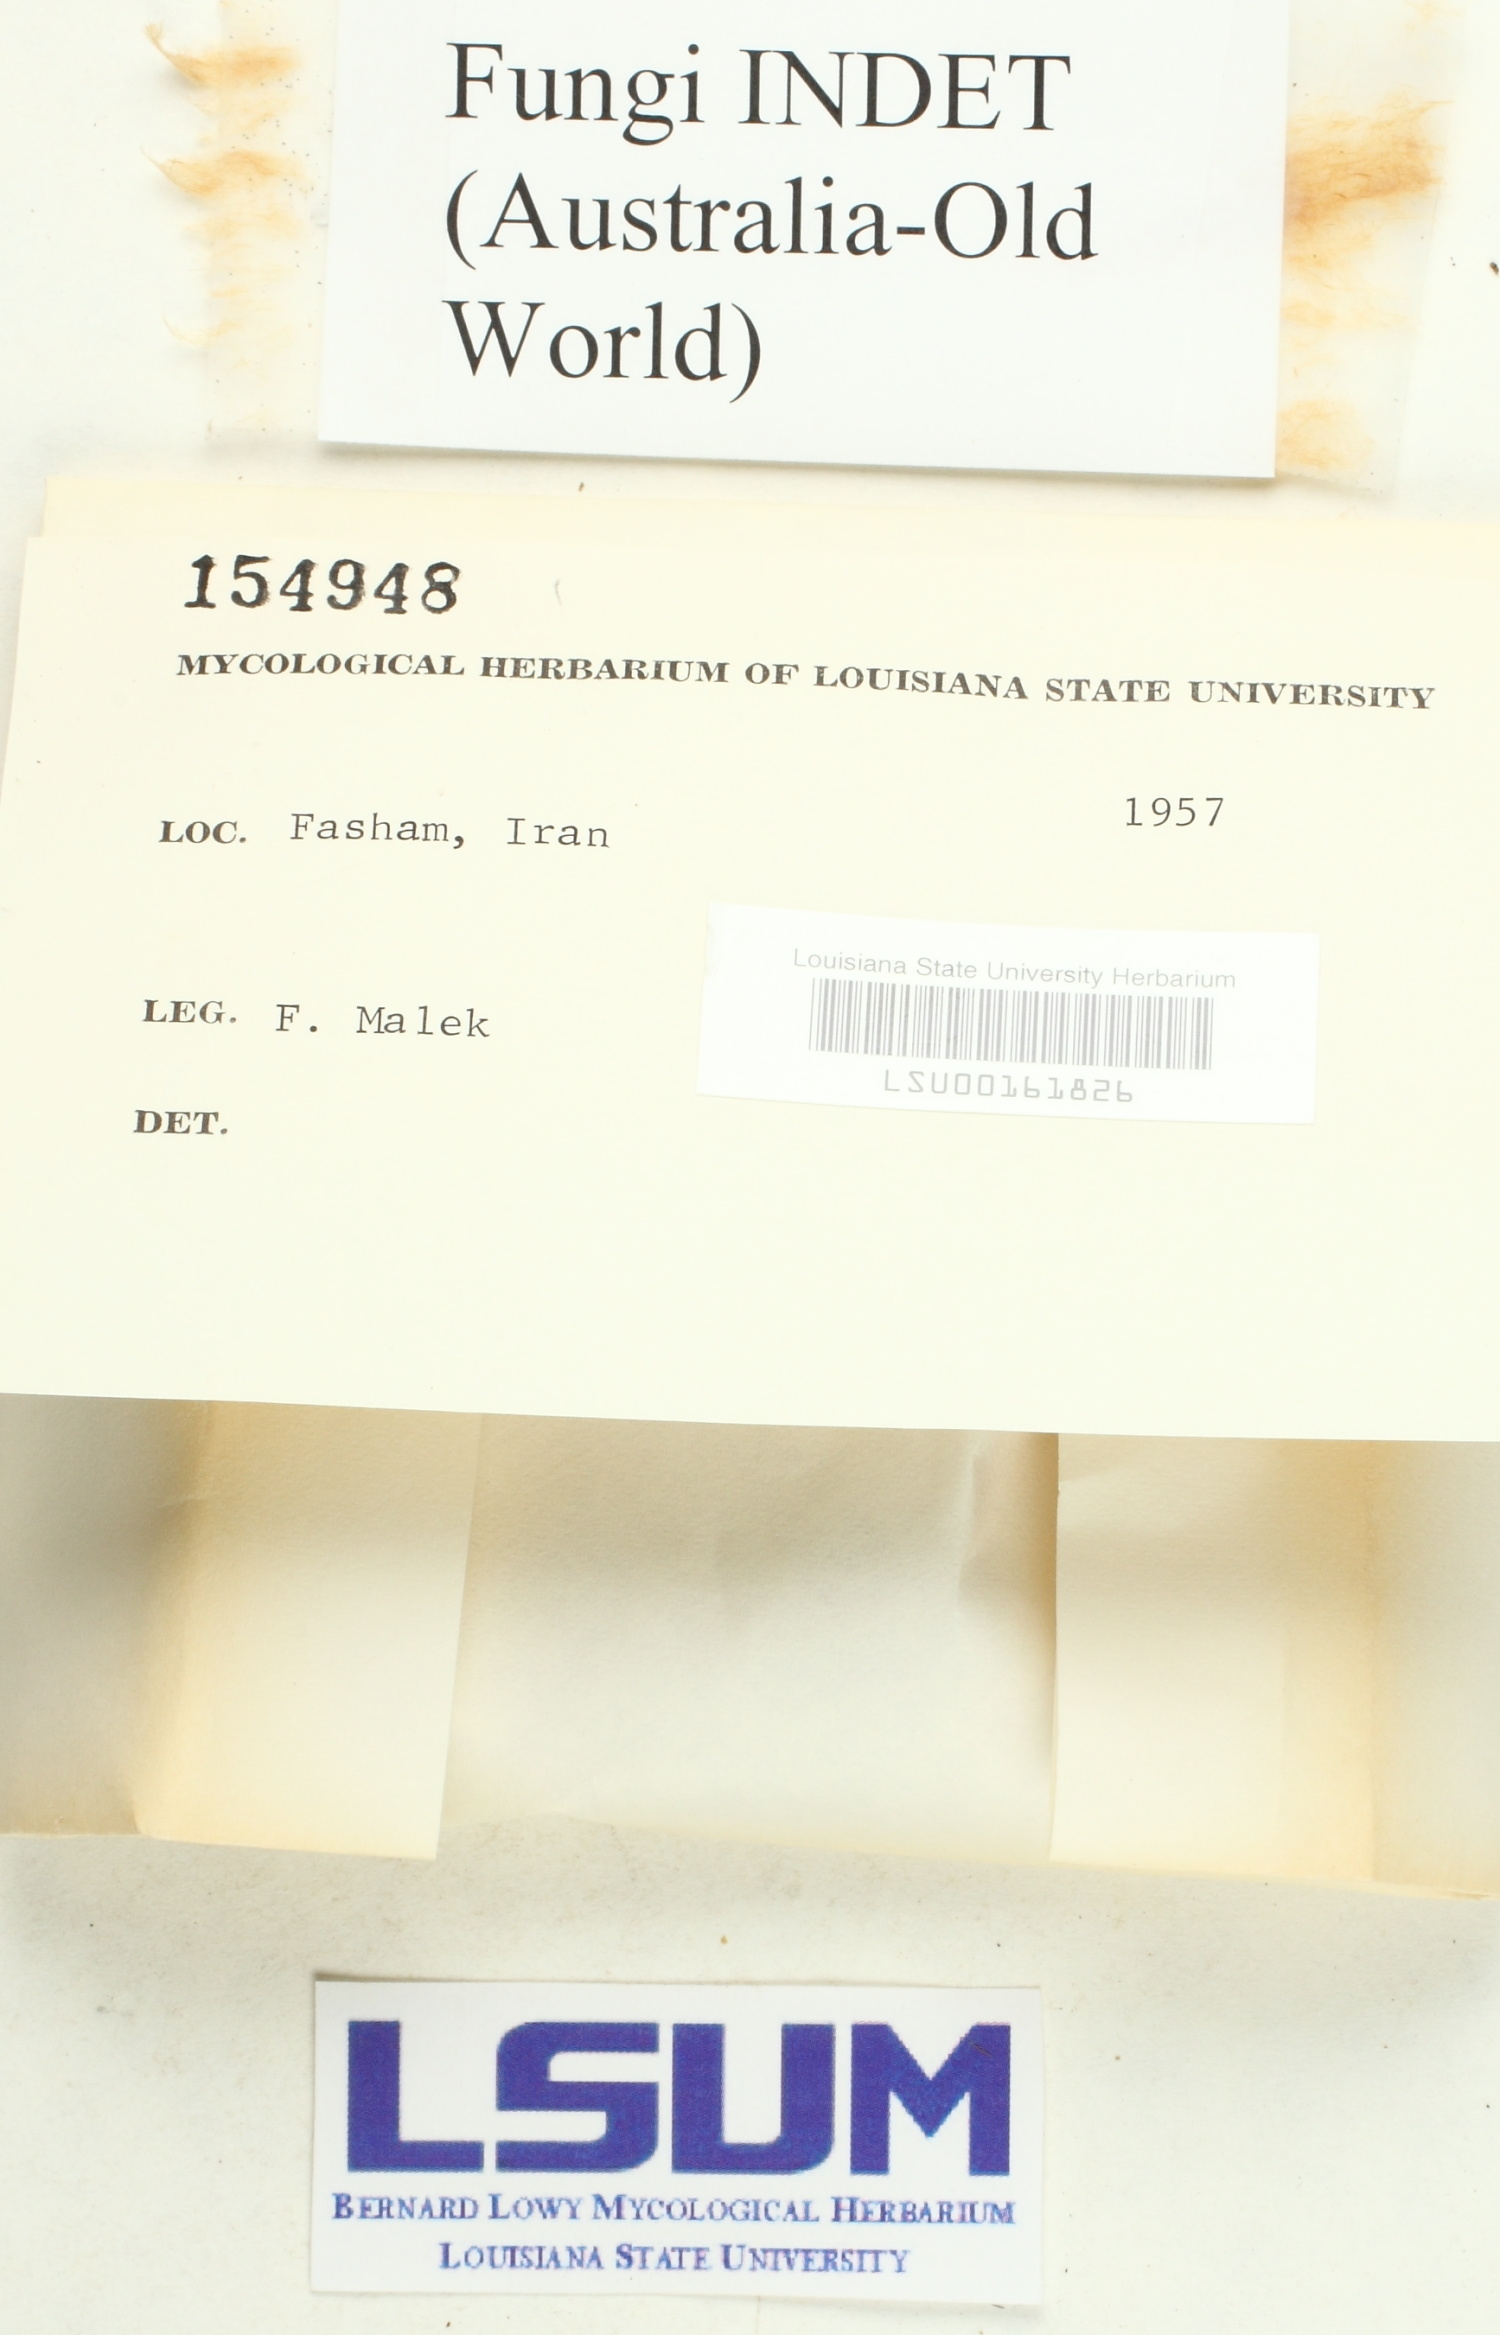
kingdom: Fungi
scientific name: Fungi
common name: Fungi
